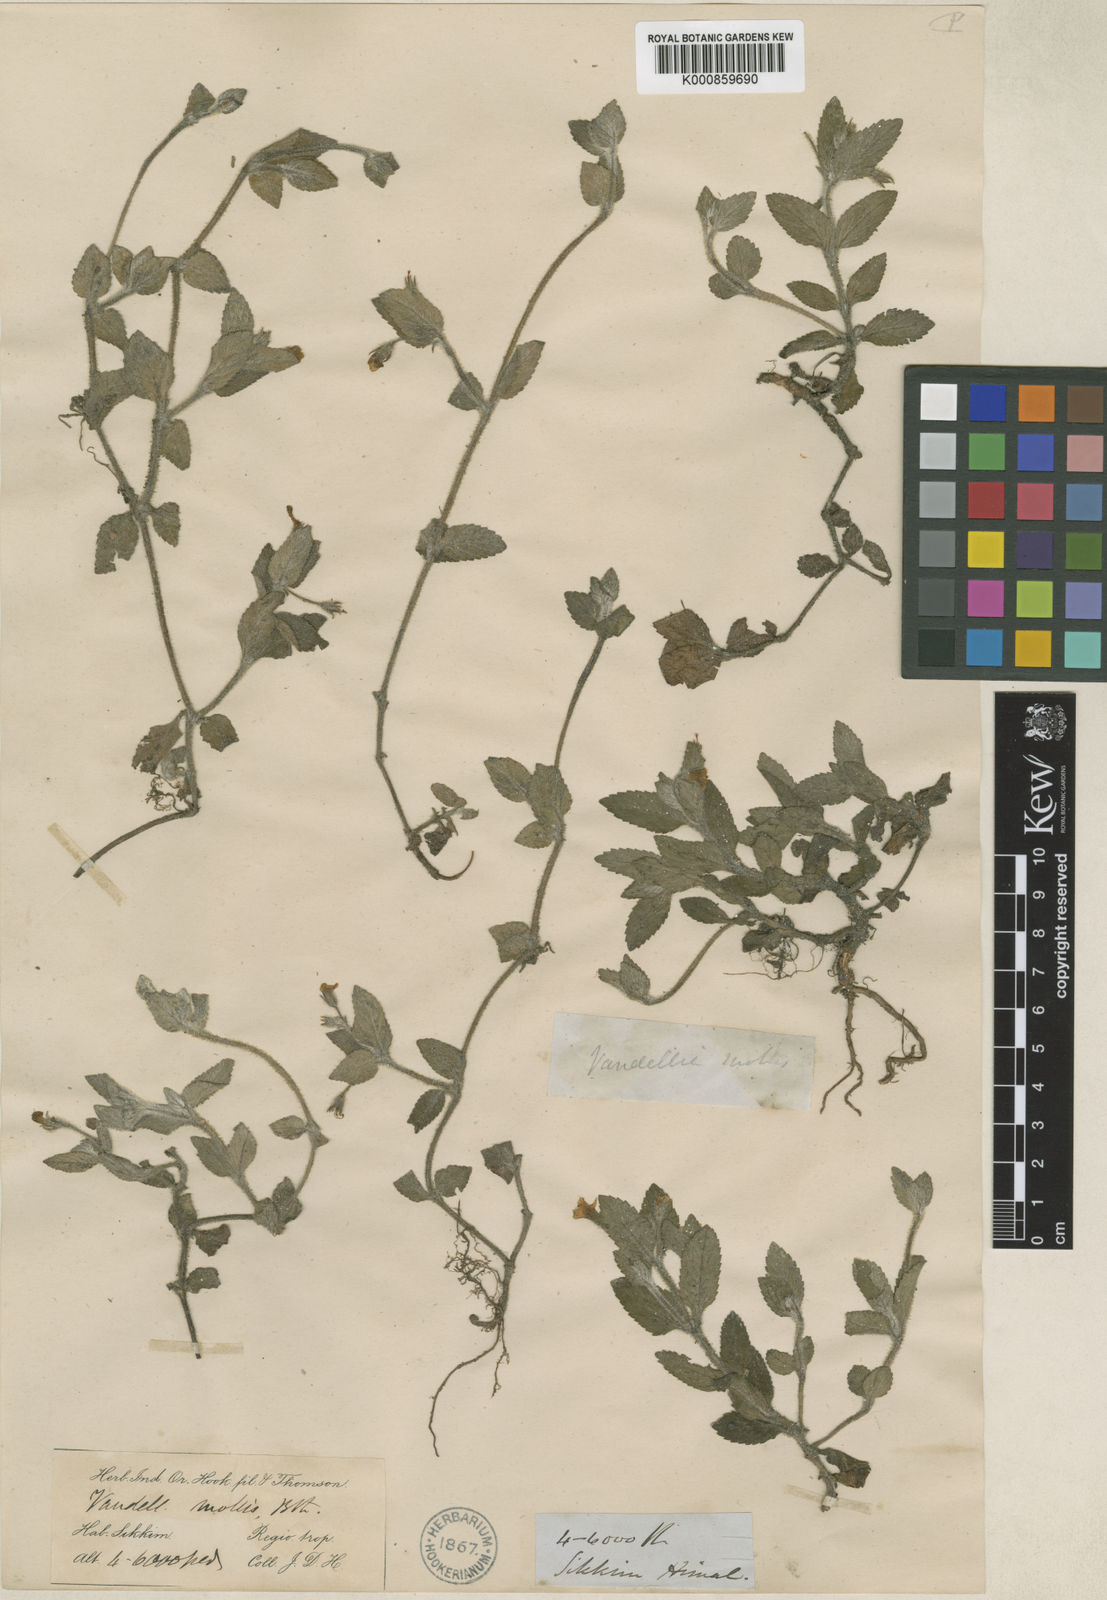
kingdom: Plantae
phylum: Tracheophyta
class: Magnoliopsida
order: Lamiales
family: Linderniaceae
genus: Lindernia
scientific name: Lindernia
